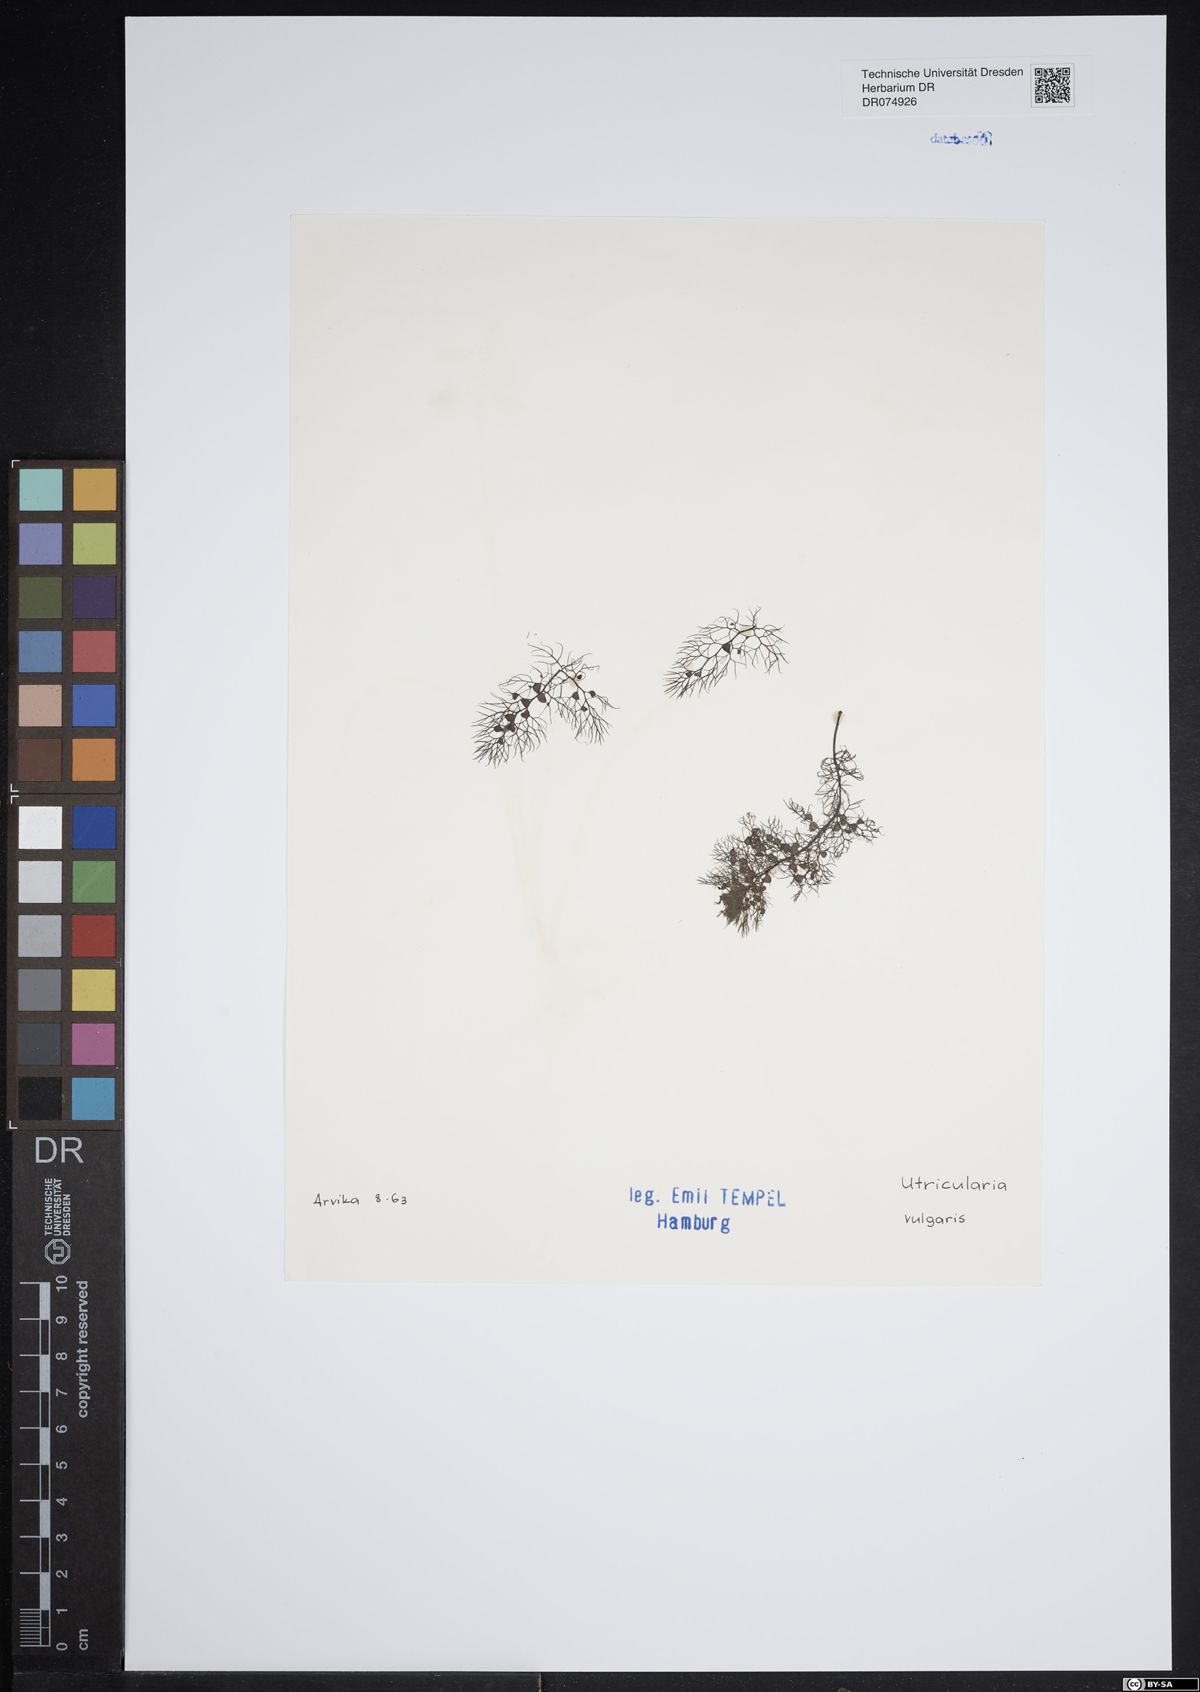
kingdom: Plantae
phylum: Tracheophyta
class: Magnoliopsida
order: Lamiales
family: Lentibulariaceae
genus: Utricularia
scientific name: Utricularia vulgaris
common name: Greater bladderwort
